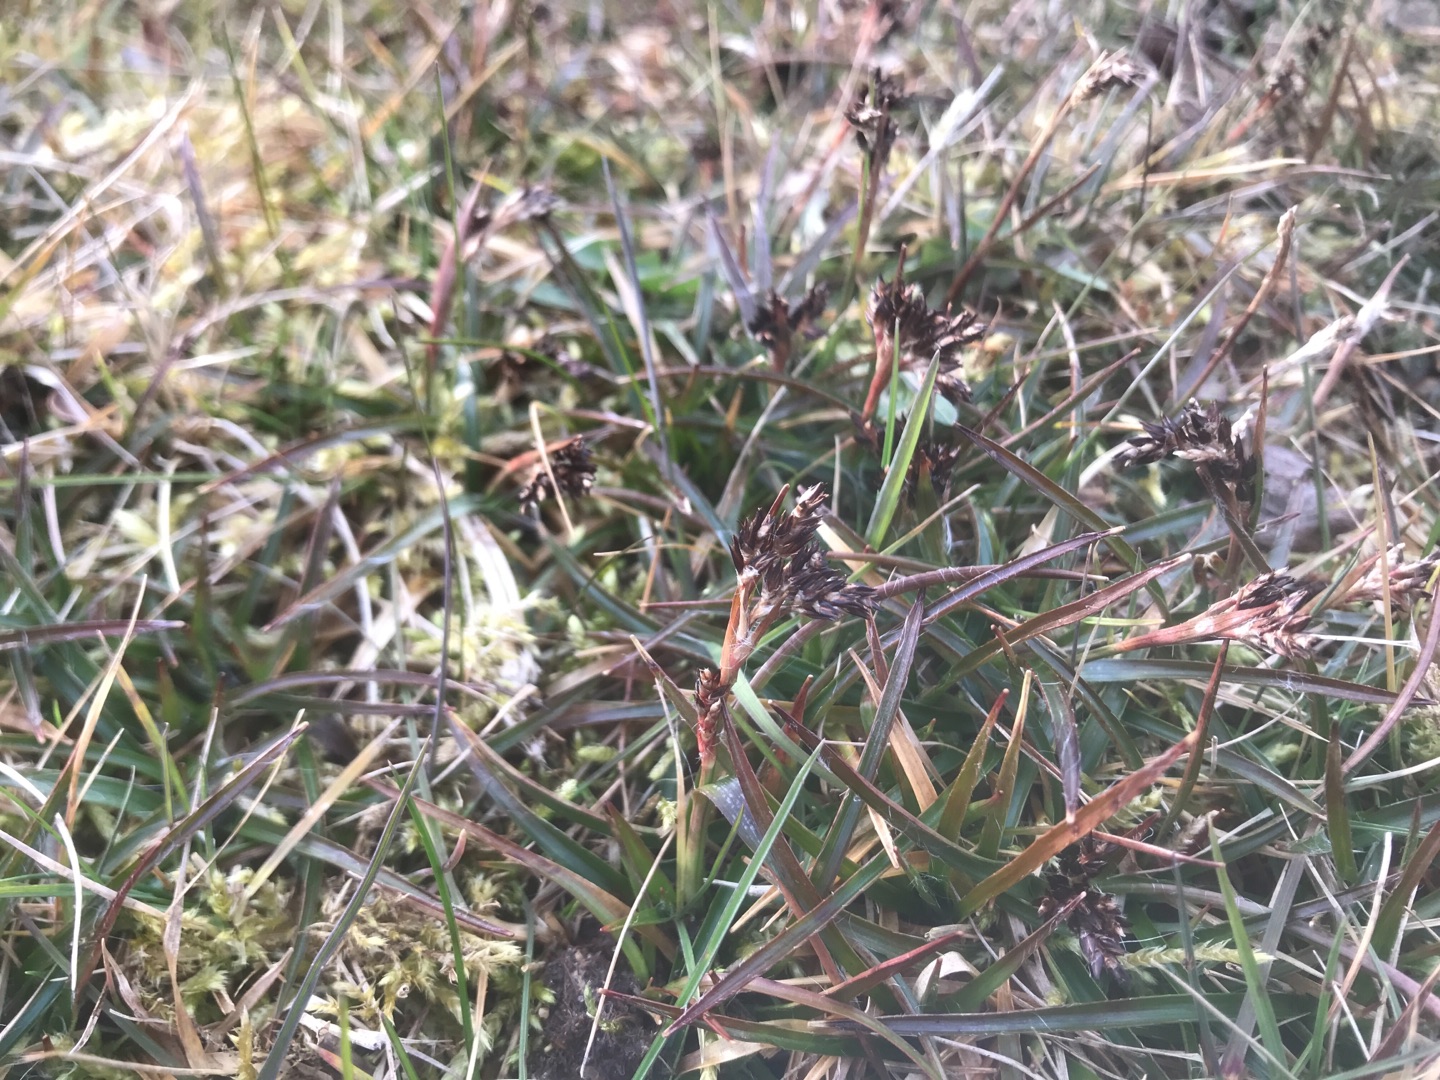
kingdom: Plantae
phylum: Tracheophyta
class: Liliopsida
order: Poales
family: Juncaceae
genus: Luzula
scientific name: Luzula campestris
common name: Mark-frytle
